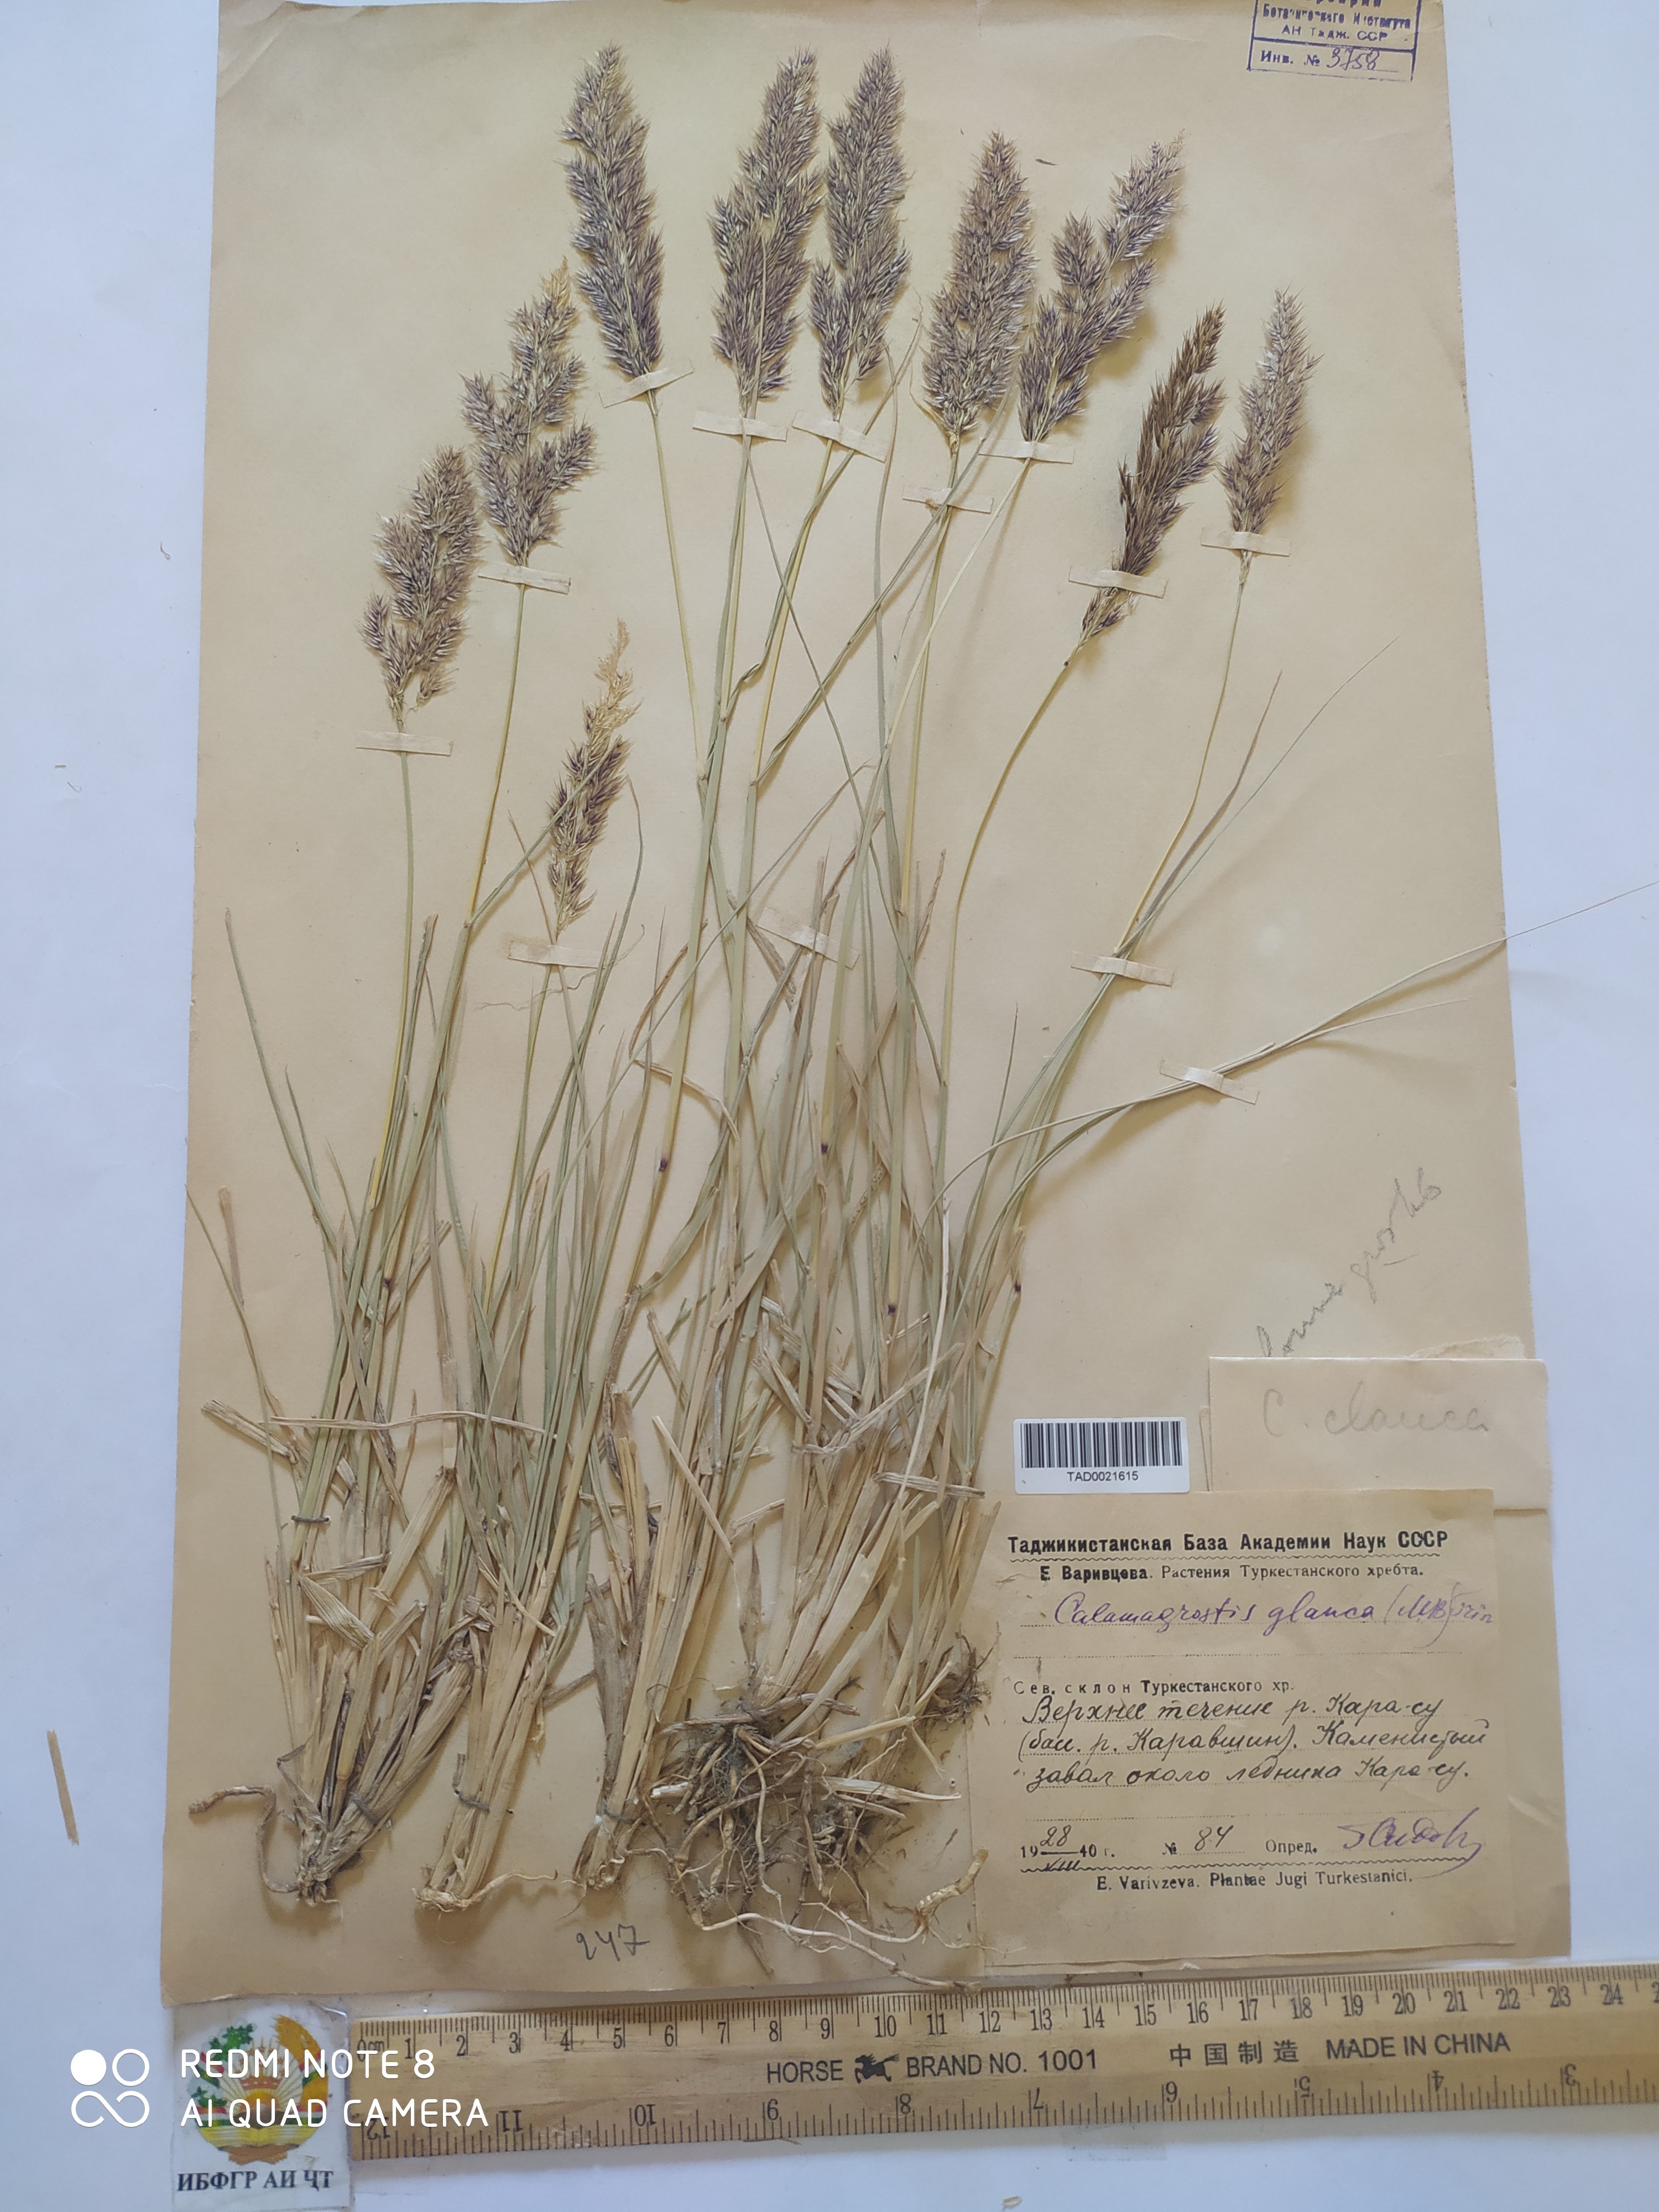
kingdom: Plantae
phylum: Tracheophyta
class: Liliopsida
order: Poales
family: Poaceae
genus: Calamagrostis
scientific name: Calamagrostis pseudophragmites
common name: Coastal small-reed
